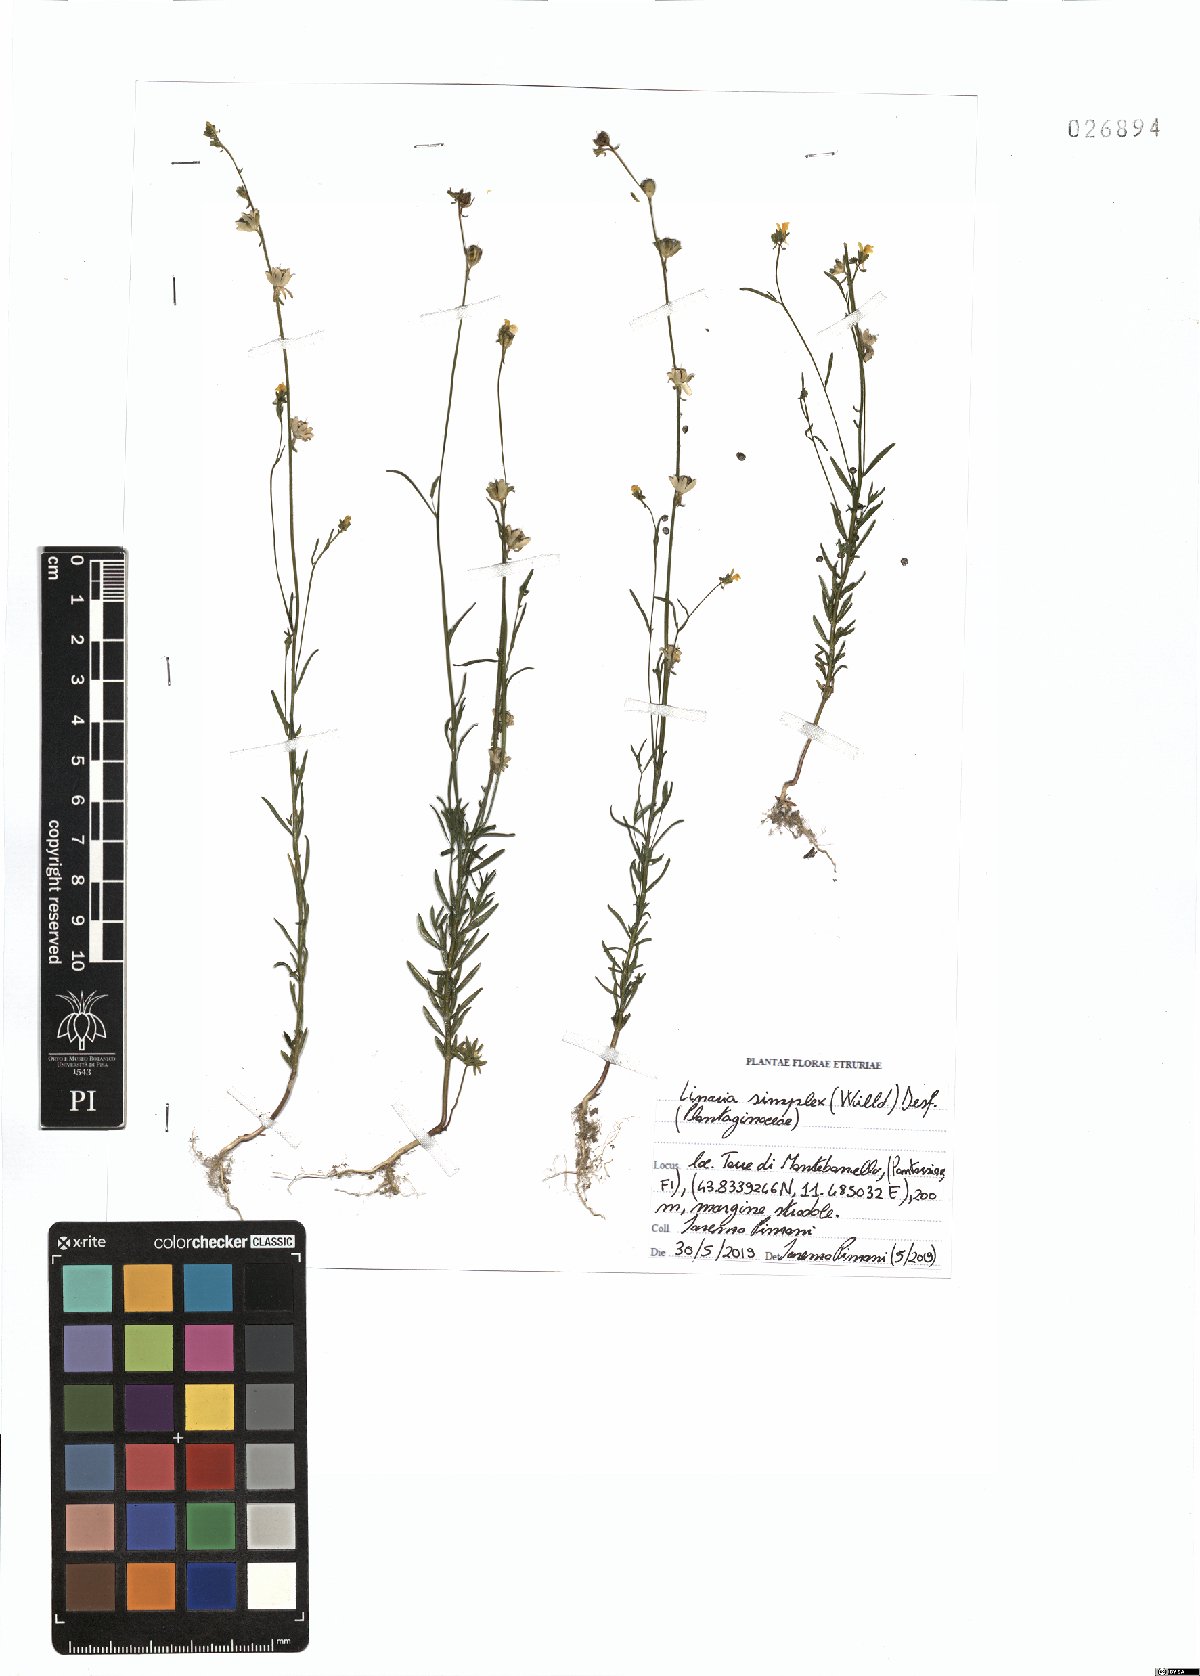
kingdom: Plantae
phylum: Tracheophyta
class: Magnoliopsida
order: Lamiales
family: Plantaginaceae
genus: Linaria
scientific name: Linaria simplex
